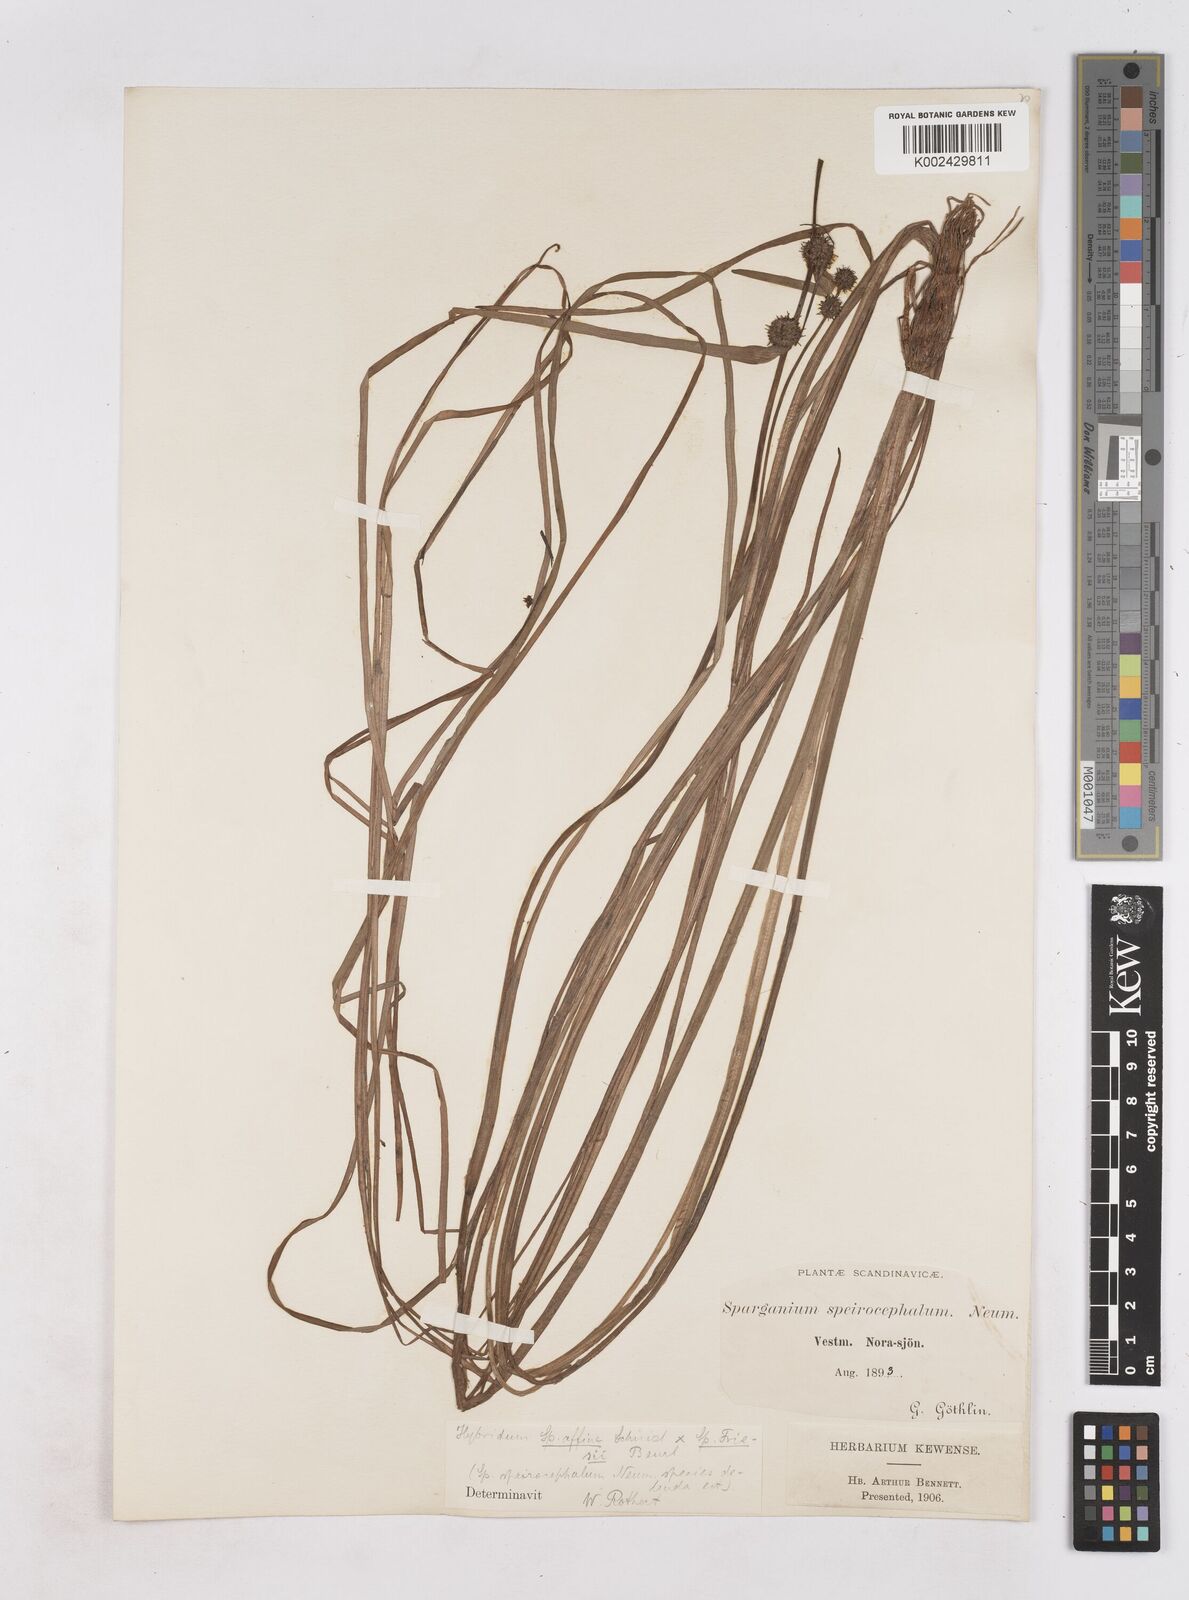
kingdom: Plantae
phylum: Tracheophyta
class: Liliopsida
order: Poales
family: Typhaceae
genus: Sparganium
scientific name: Sparganium
